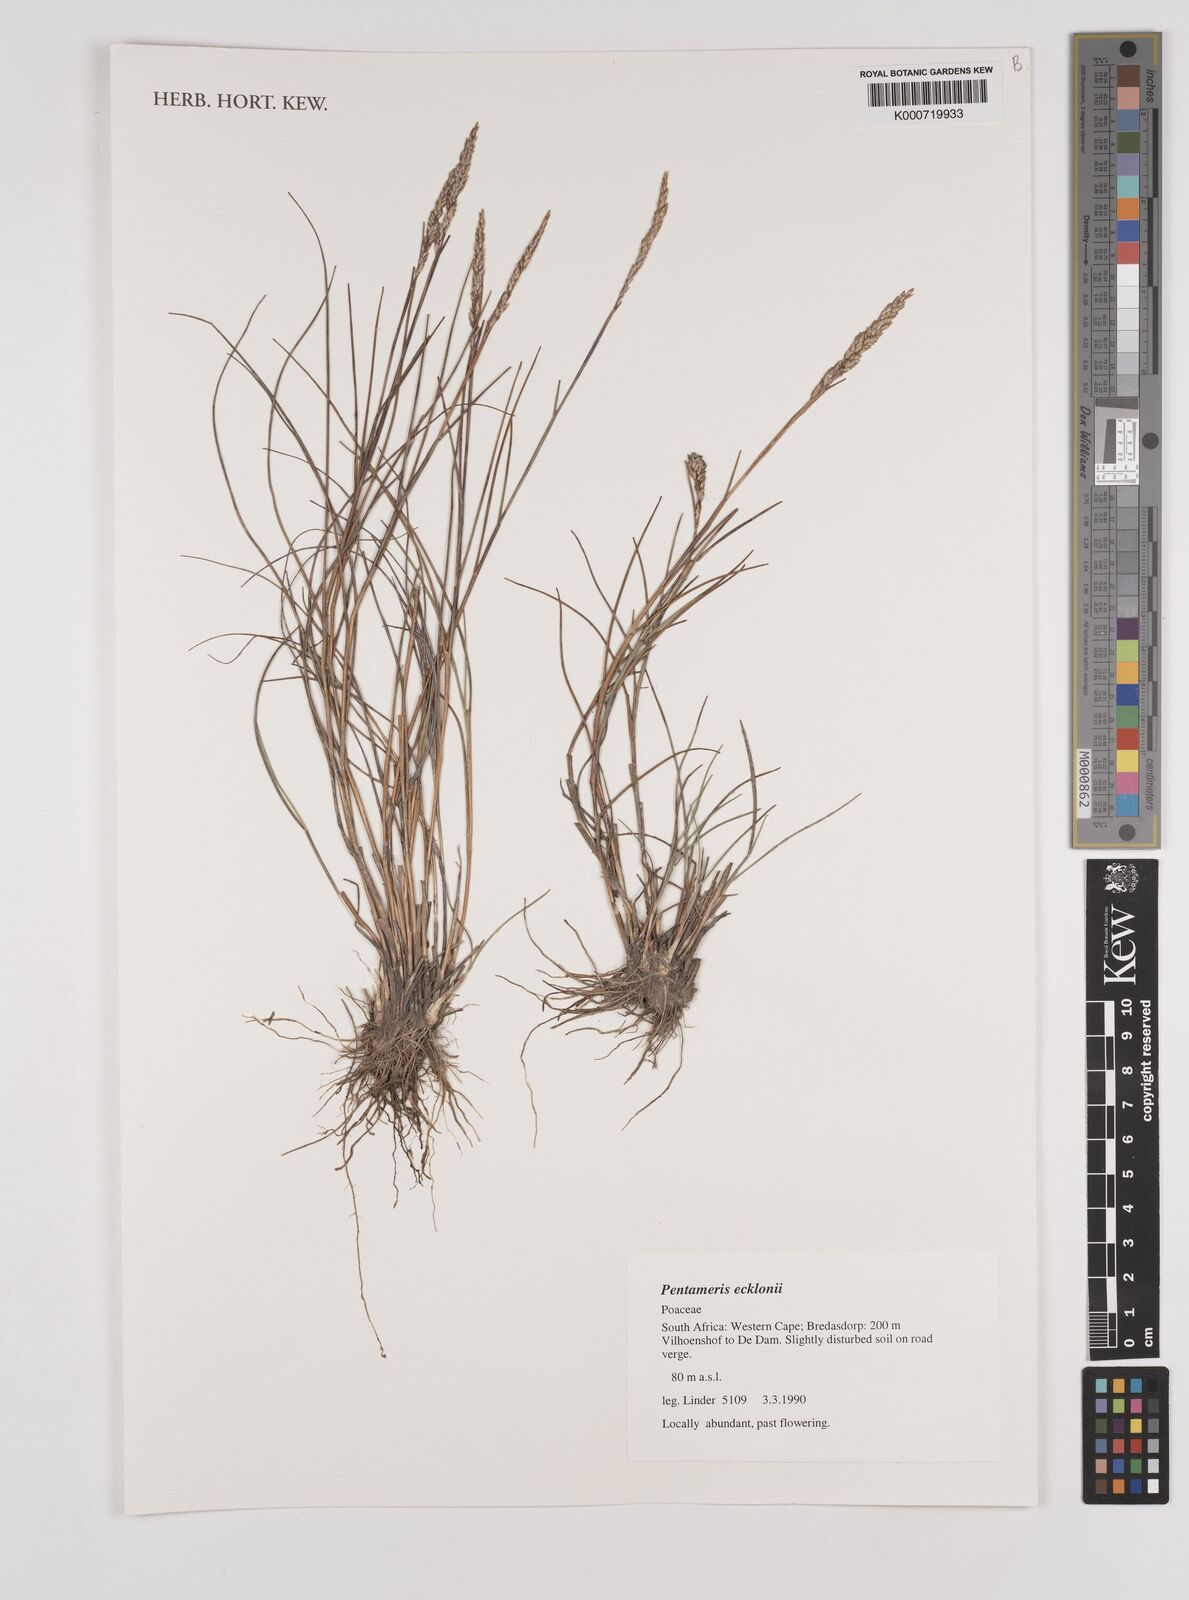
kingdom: Plantae
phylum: Tracheophyta
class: Liliopsida
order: Poales
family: Poaceae
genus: Pentameris
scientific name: Pentameris
